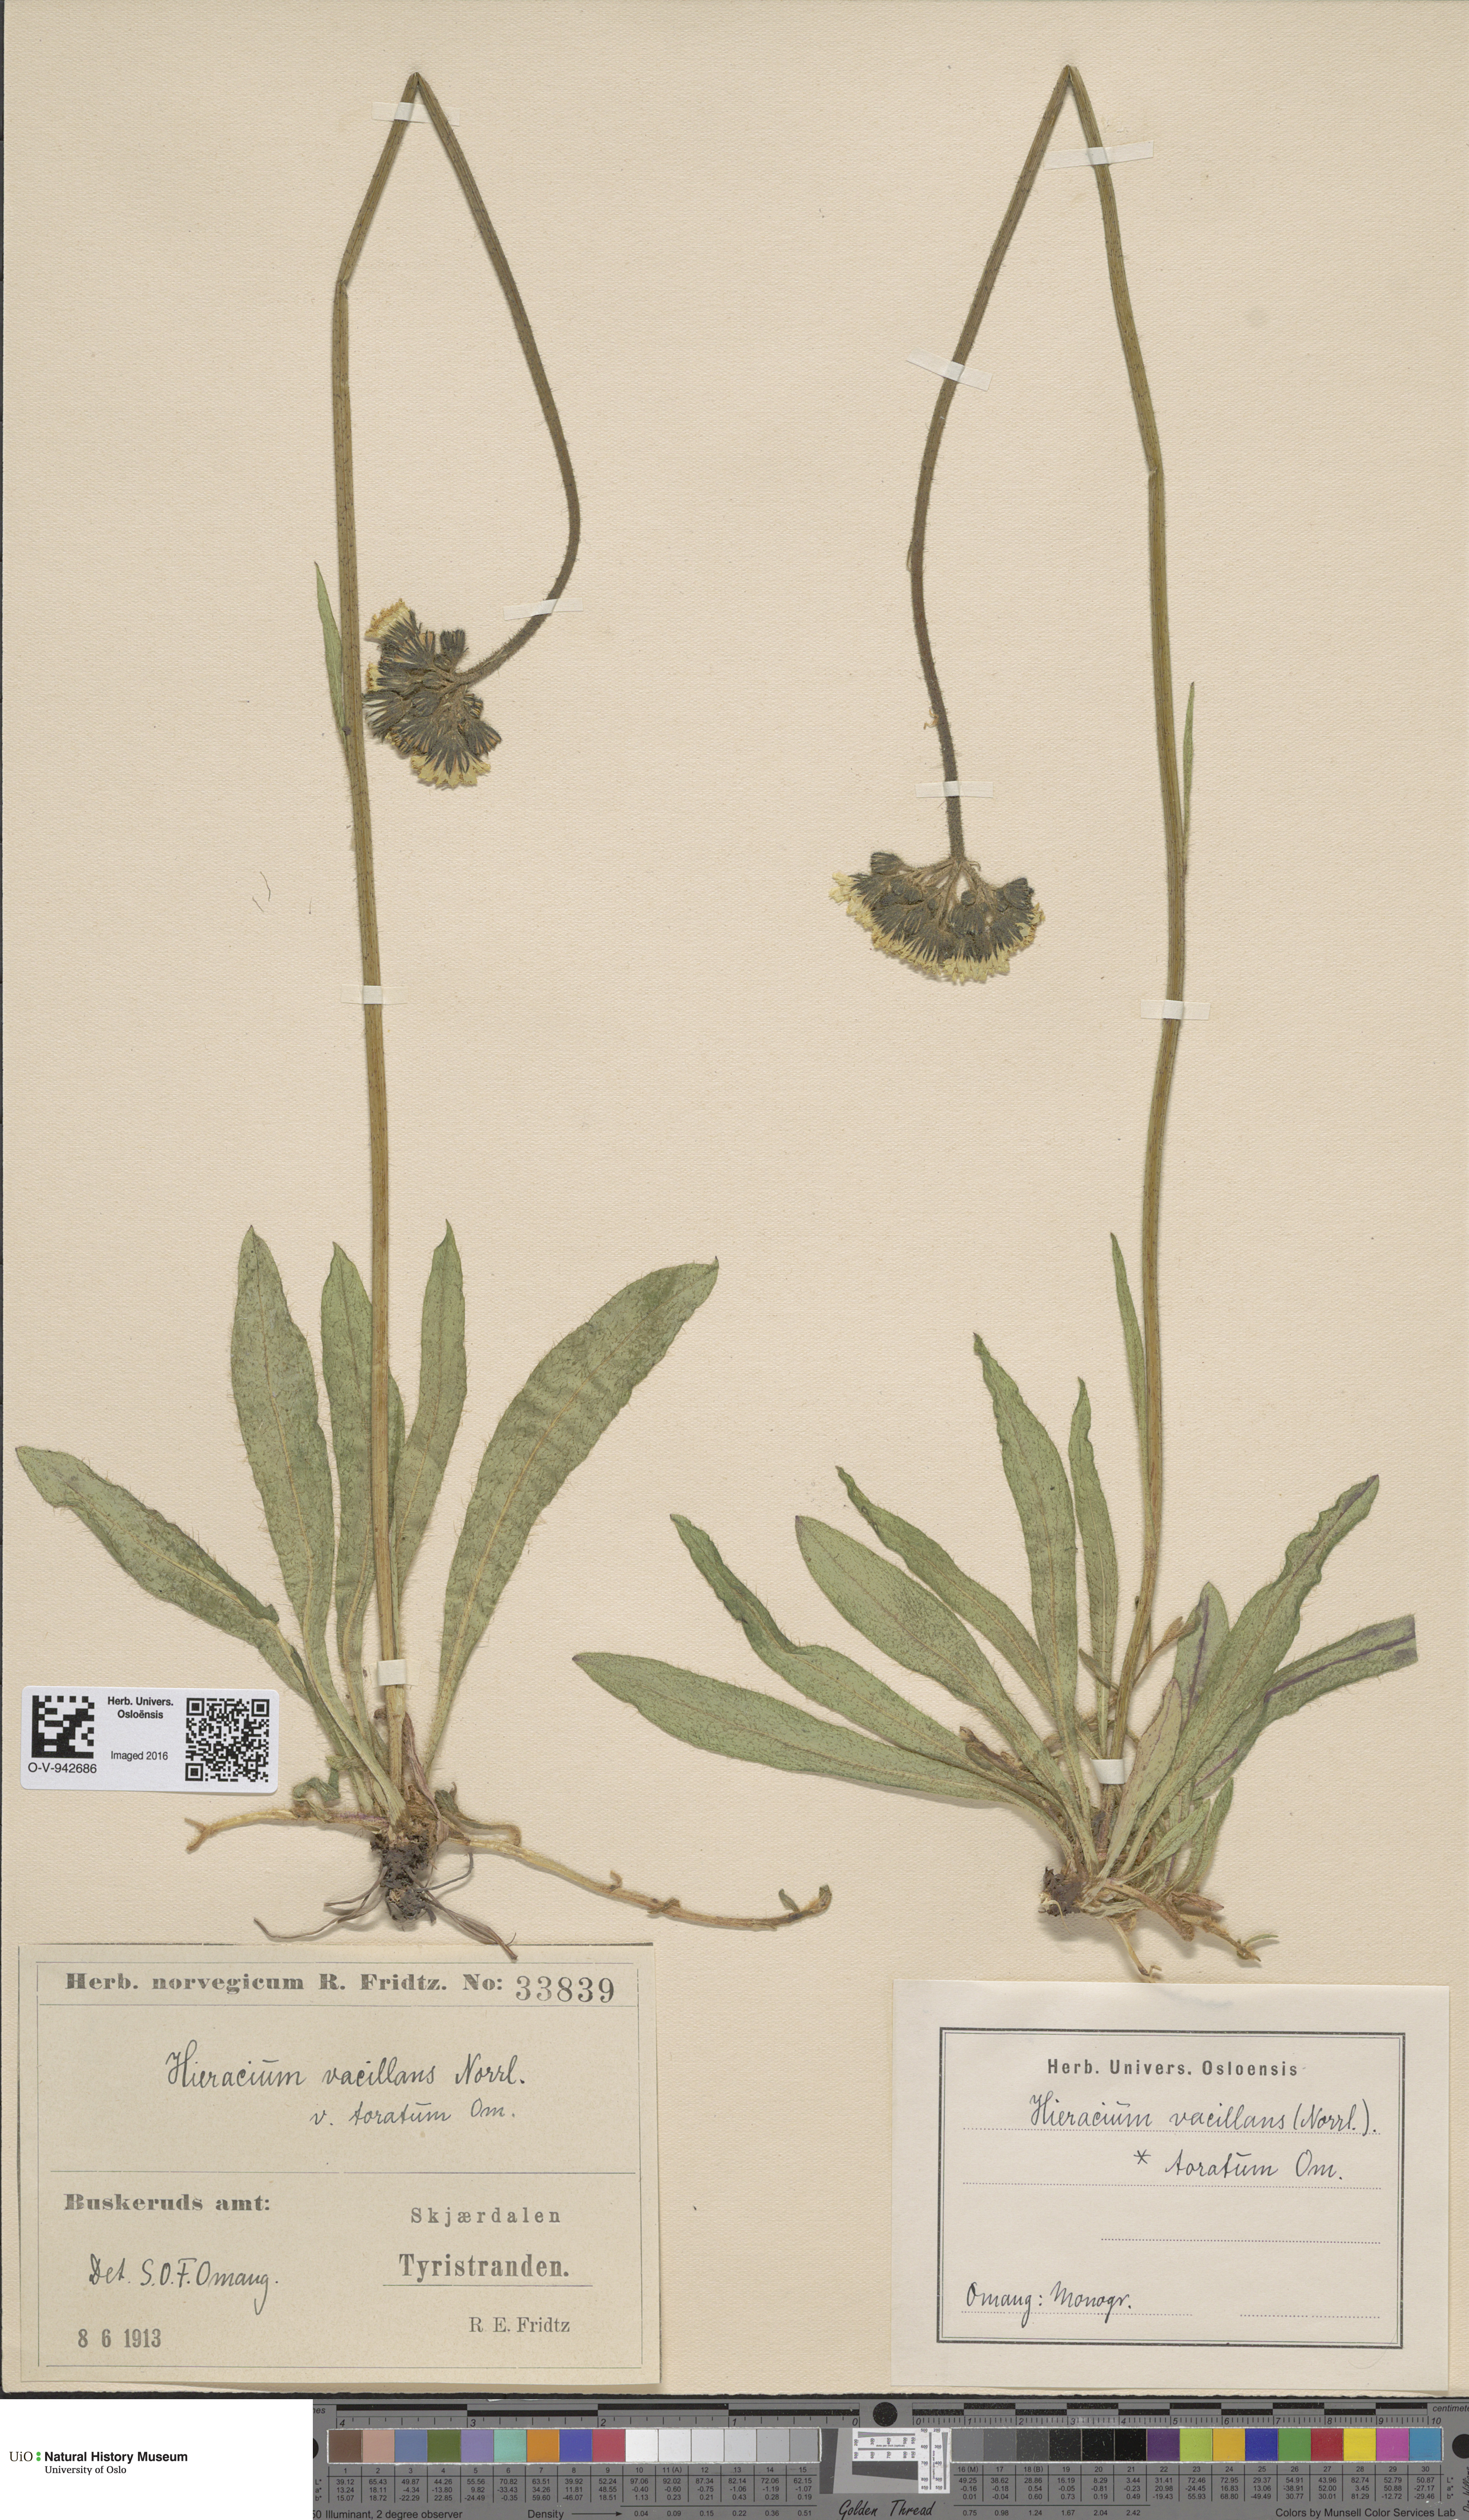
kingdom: Plantae
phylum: Tracheophyta
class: Magnoliopsida
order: Asterales
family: Asteraceae
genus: Pilosella
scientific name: Pilosella glomerata
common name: Queen devil hawkweed
